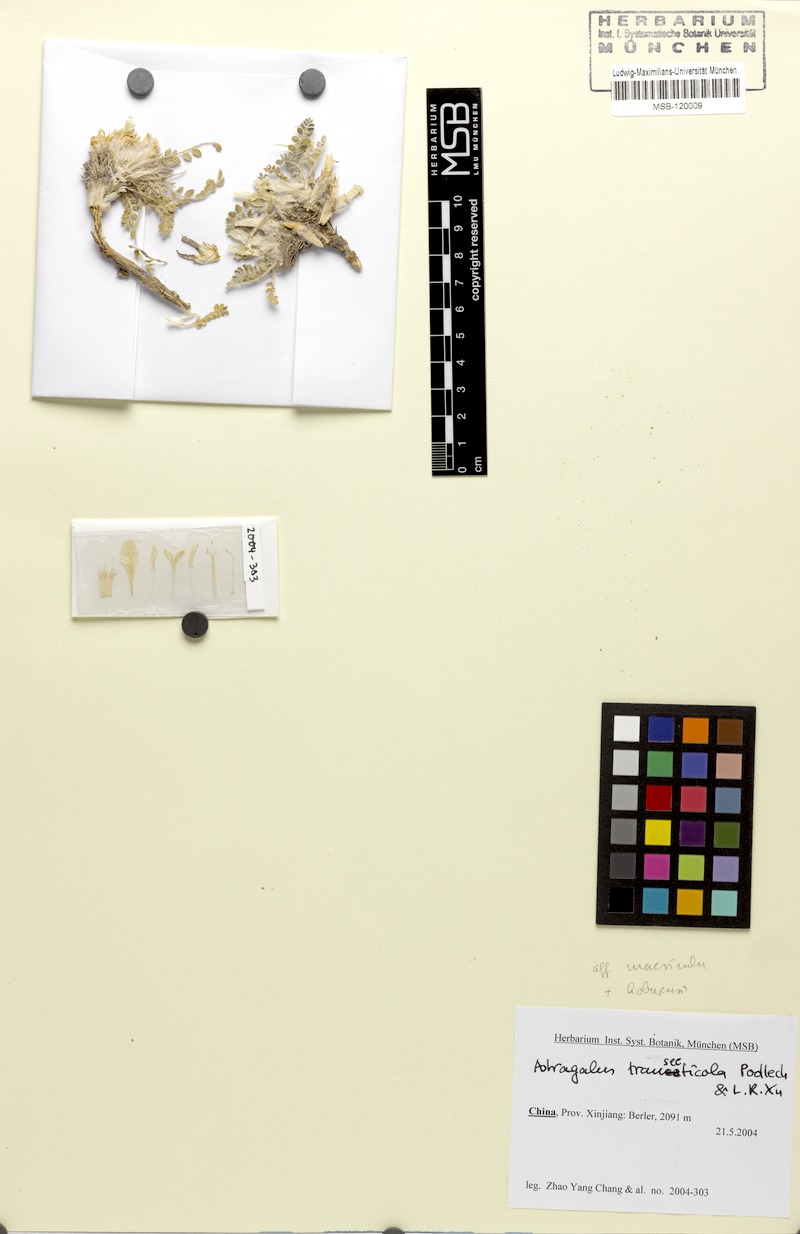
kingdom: Plantae
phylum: Tracheophyta
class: Magnoliopsida
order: Fabales
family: Fabaceae
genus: Astragalus
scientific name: Astragalus transecticola
